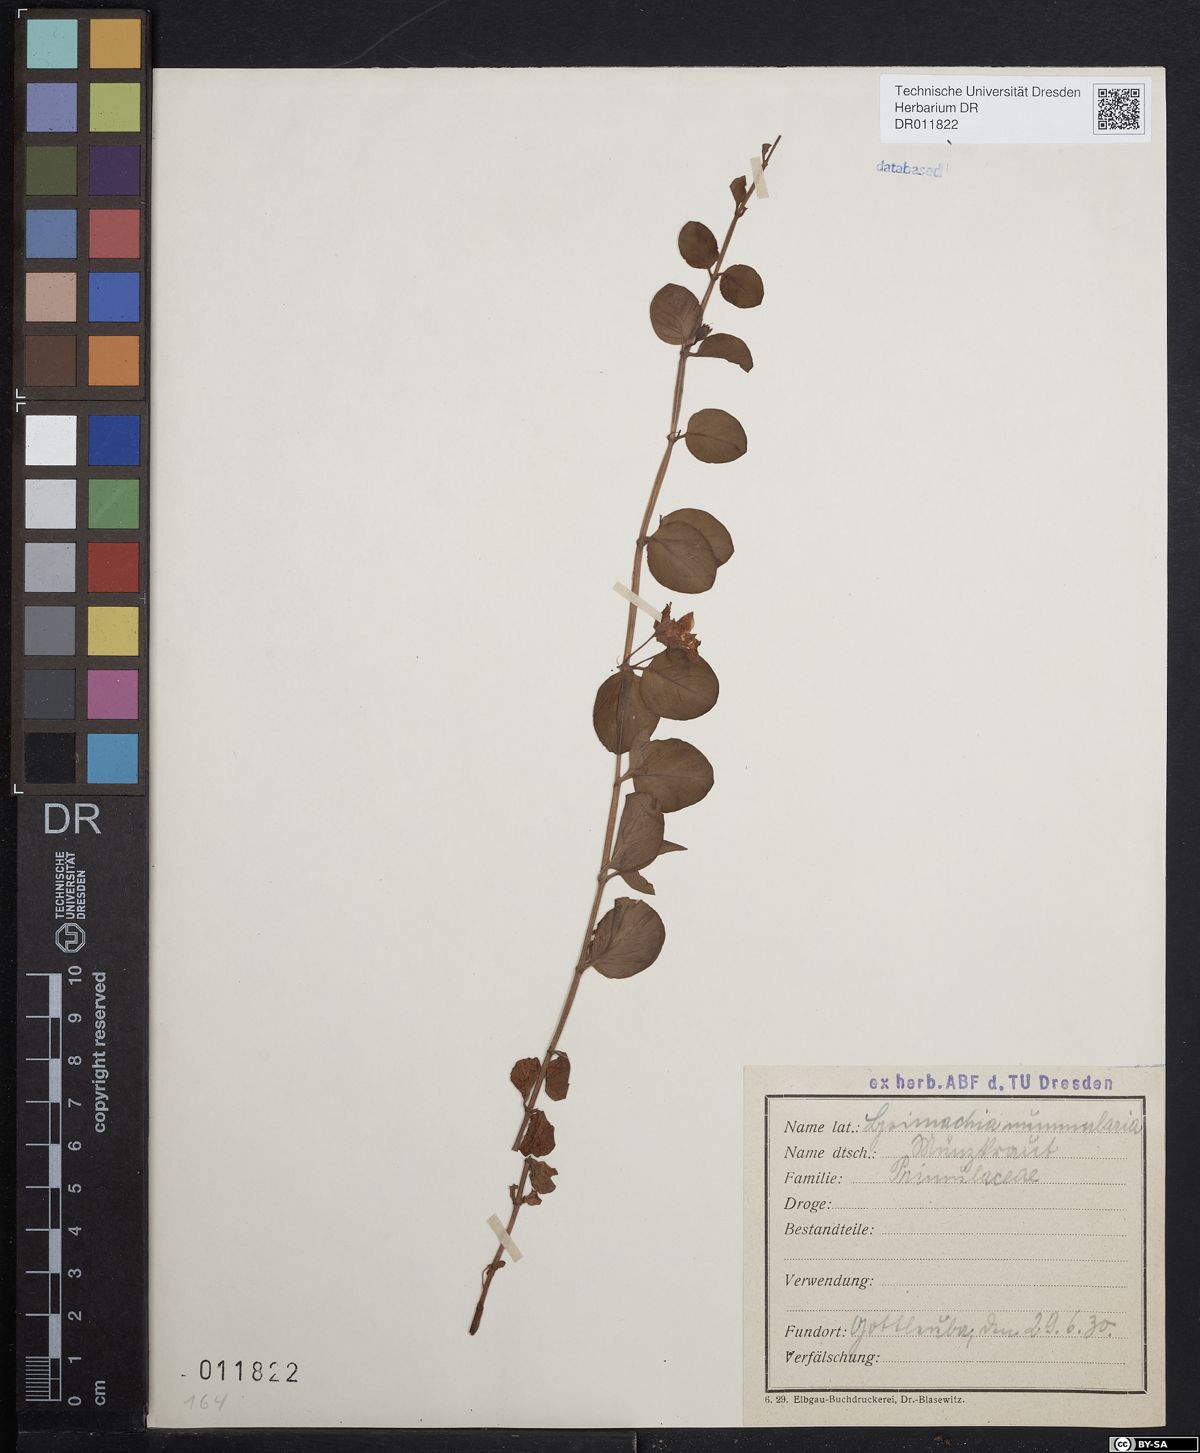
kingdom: Plantae
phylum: Tracheophyta
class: Magnoliopsida
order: Ericales
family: Primulaceae
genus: Lysimachia
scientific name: Lysimachia nummularia
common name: Moneywort
